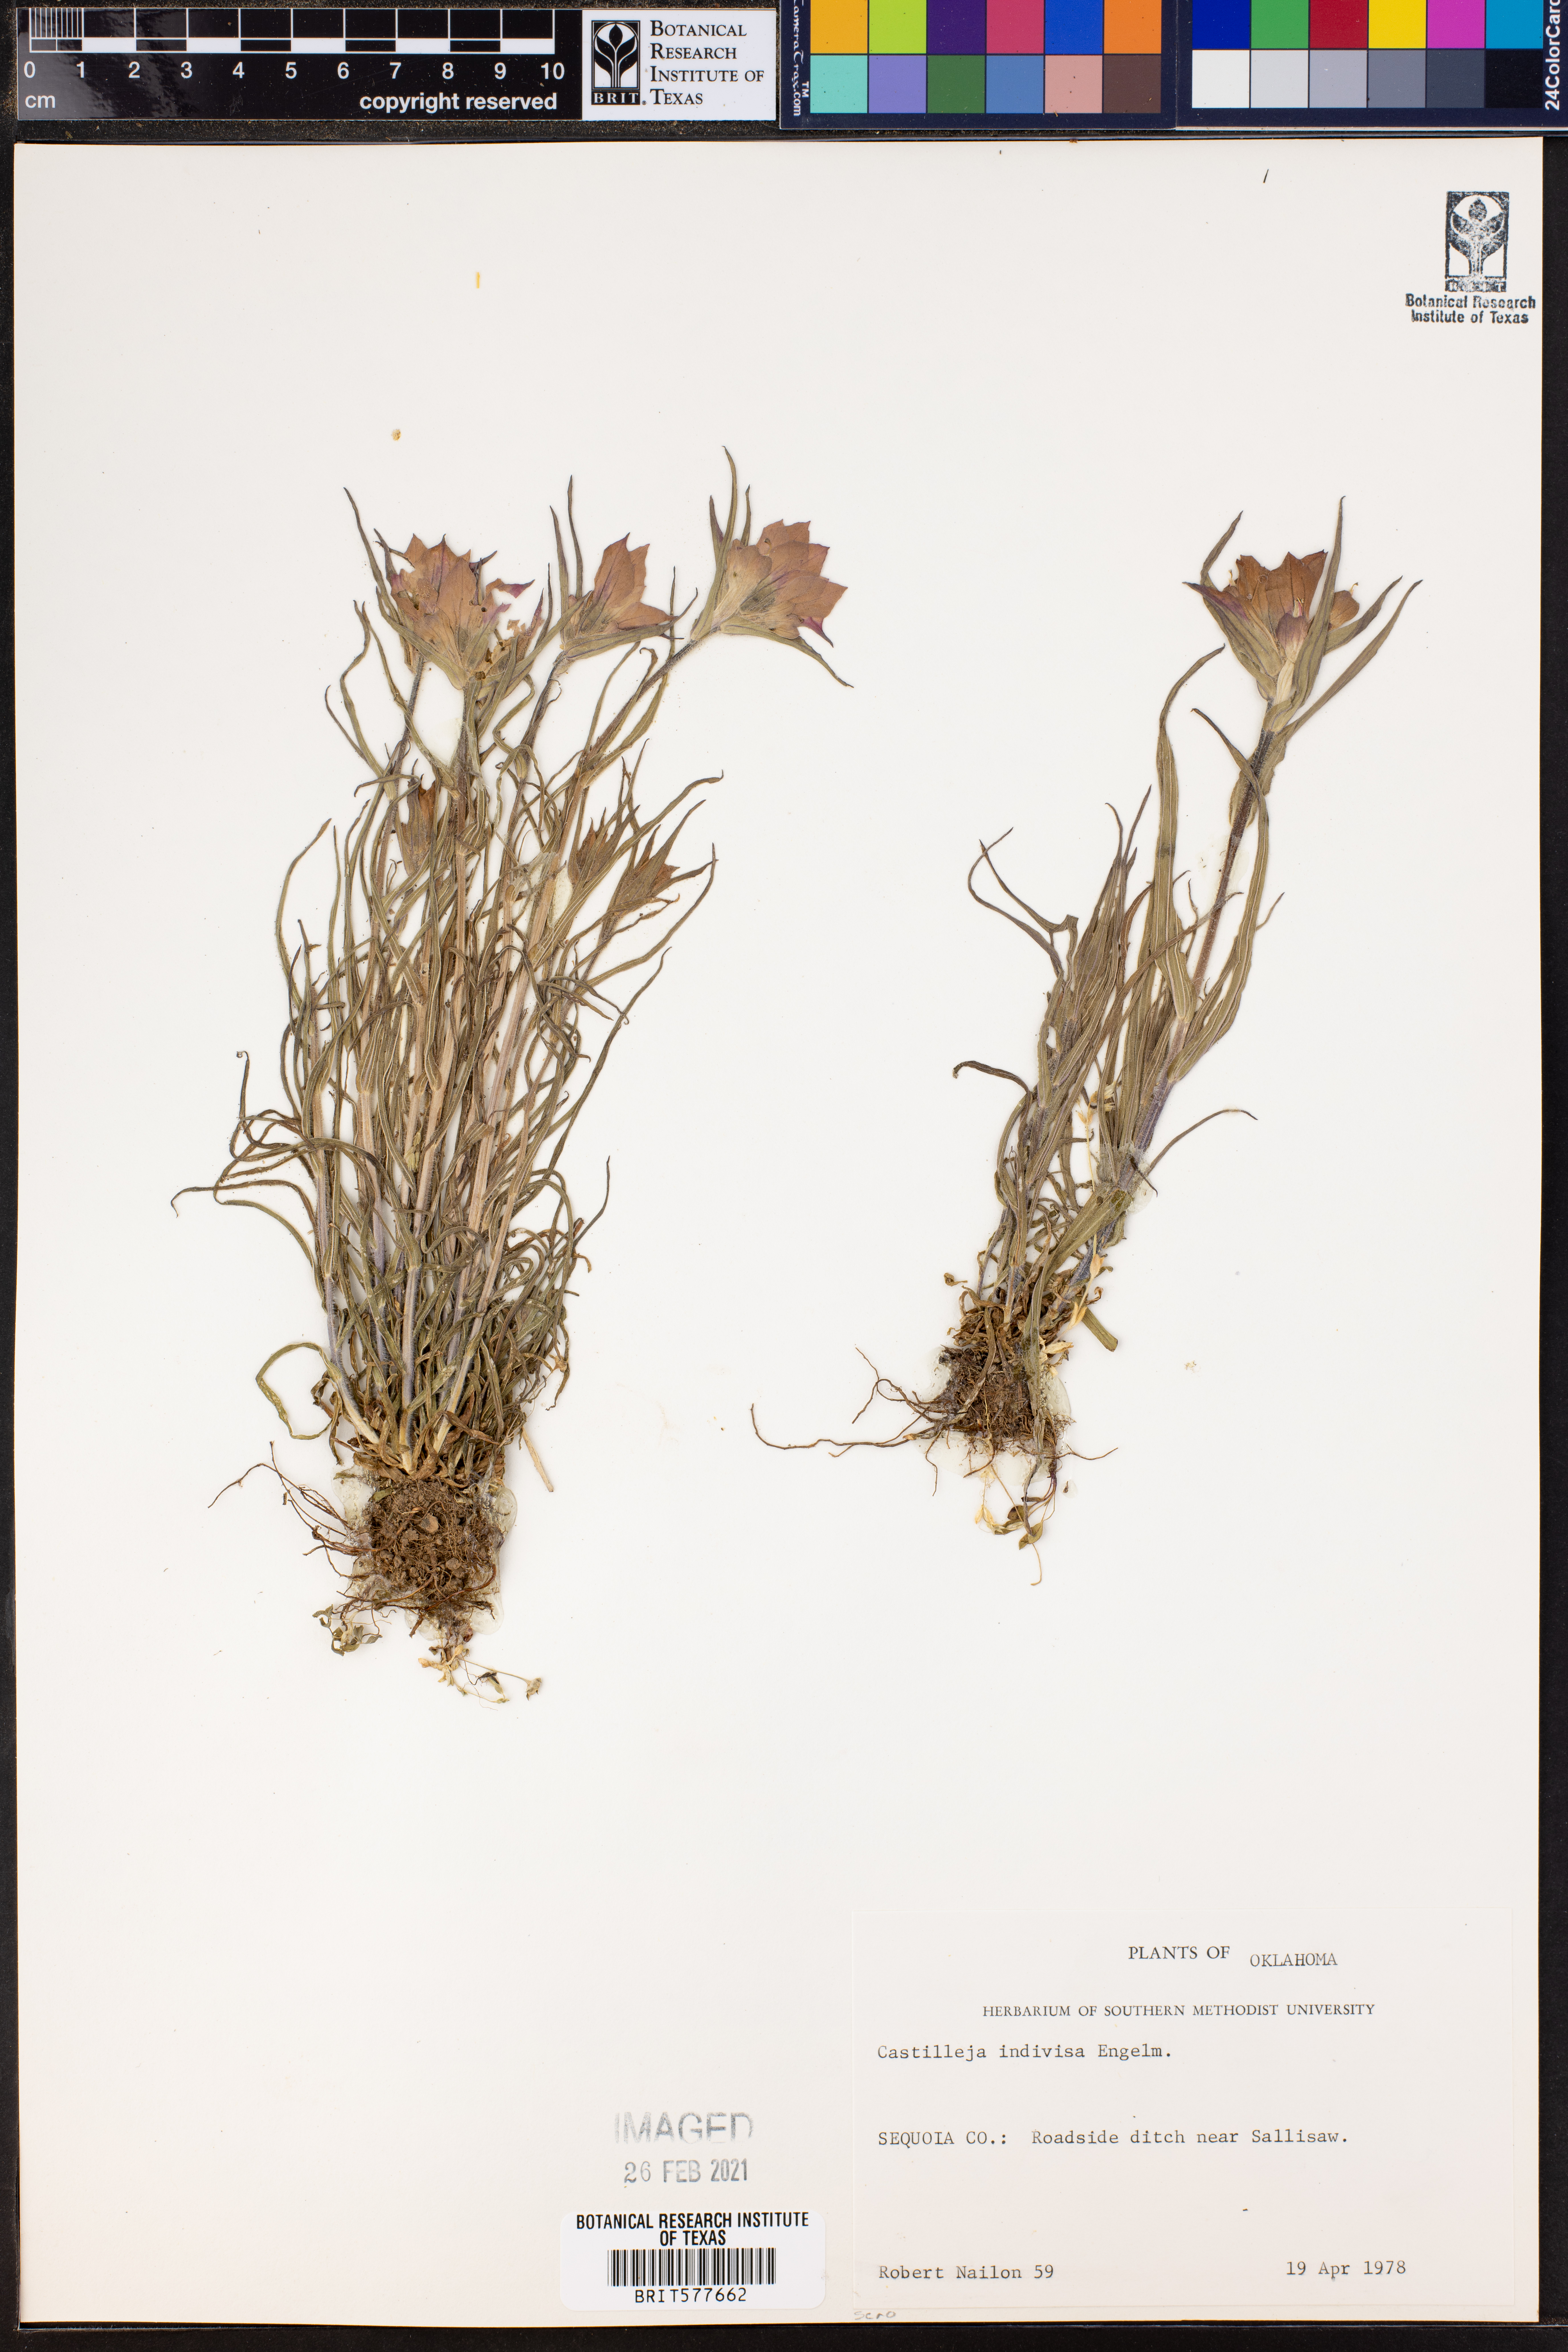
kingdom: Plantae
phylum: Tracheophyta
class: Magnoliopsida
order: Lamiales
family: Orobanchaceae
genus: Castilleja
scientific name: Castilleja indivisa
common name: Texas paintbrush
